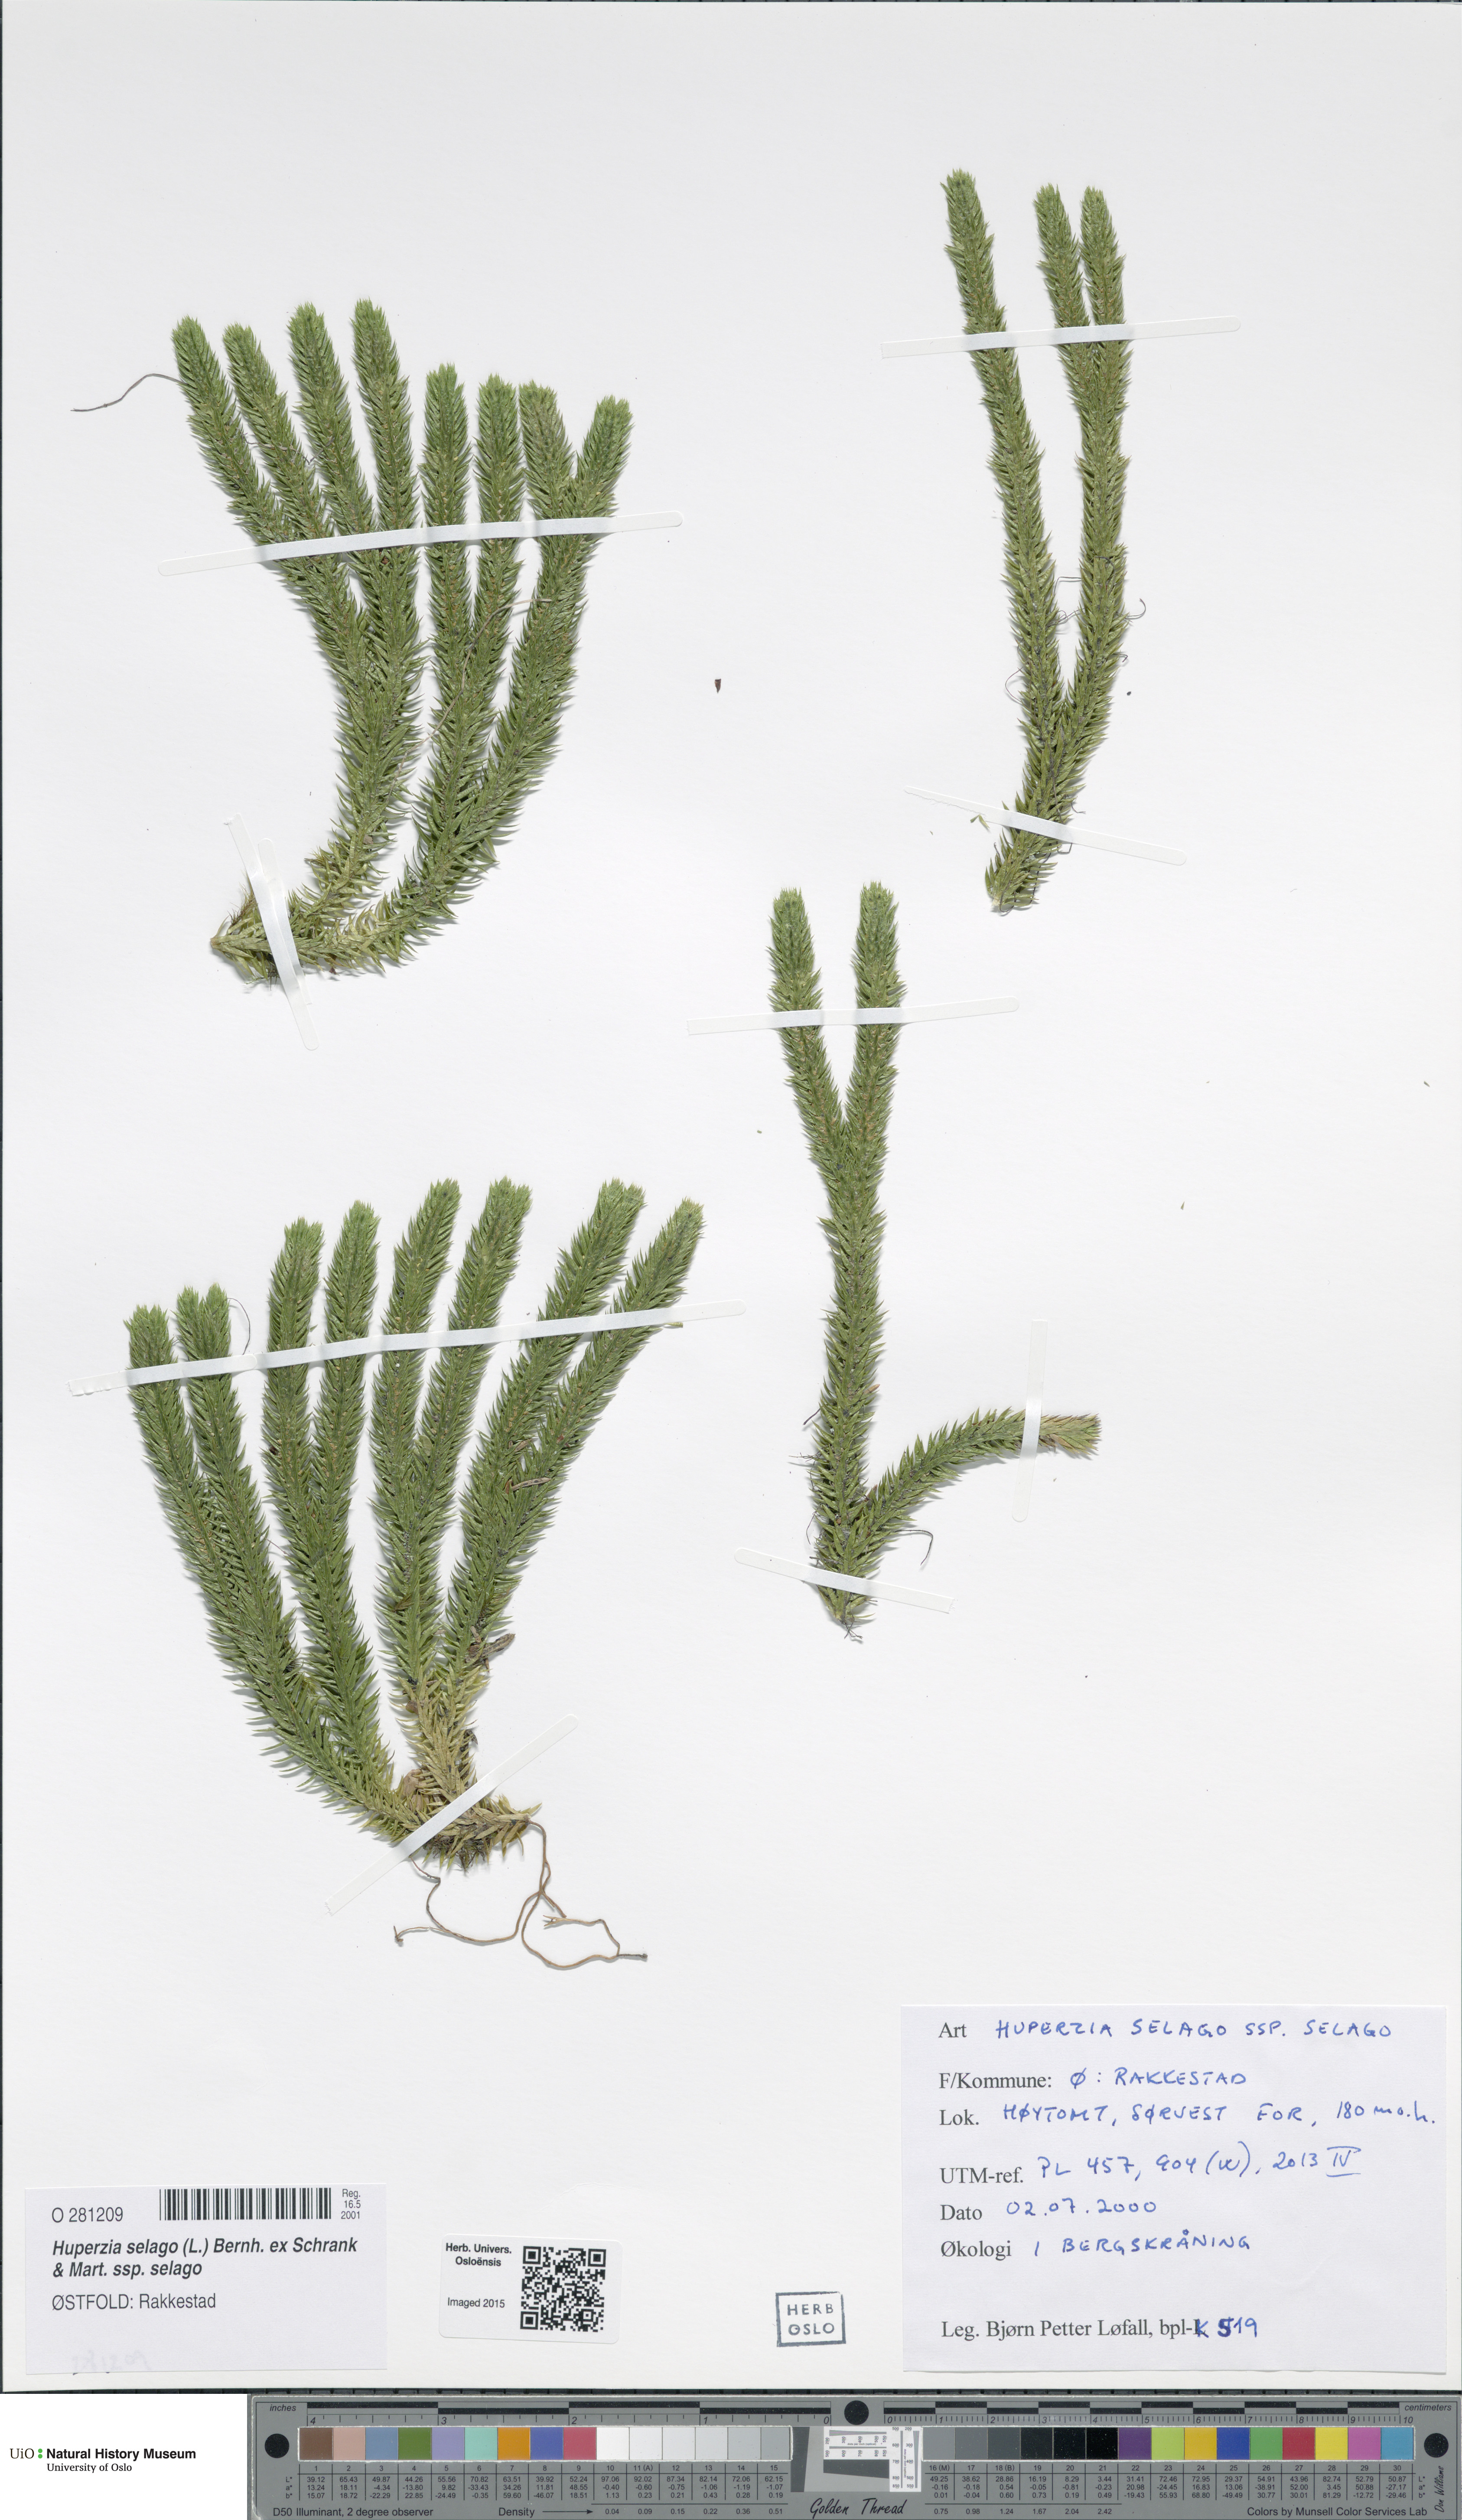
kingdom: Plantae
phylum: Tracheophyta
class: Lycopodiopsida
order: Lycopodiales
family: Lycopodiaceae
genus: Huperzia
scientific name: Huperzia selago
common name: Northern firmoss
